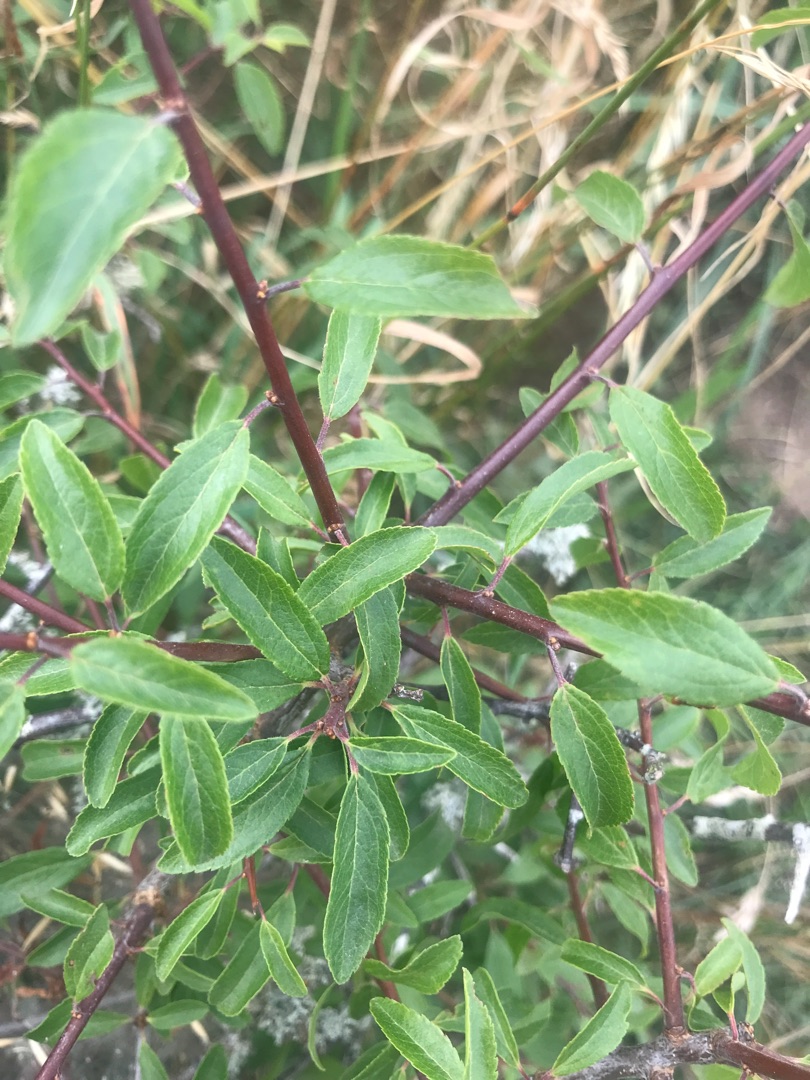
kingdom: Plantae
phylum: Tracheophyta
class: Magnoliopsida
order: Rosales
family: Rosaceae
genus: Prunus
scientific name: Prunus spinosa
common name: Slåen
